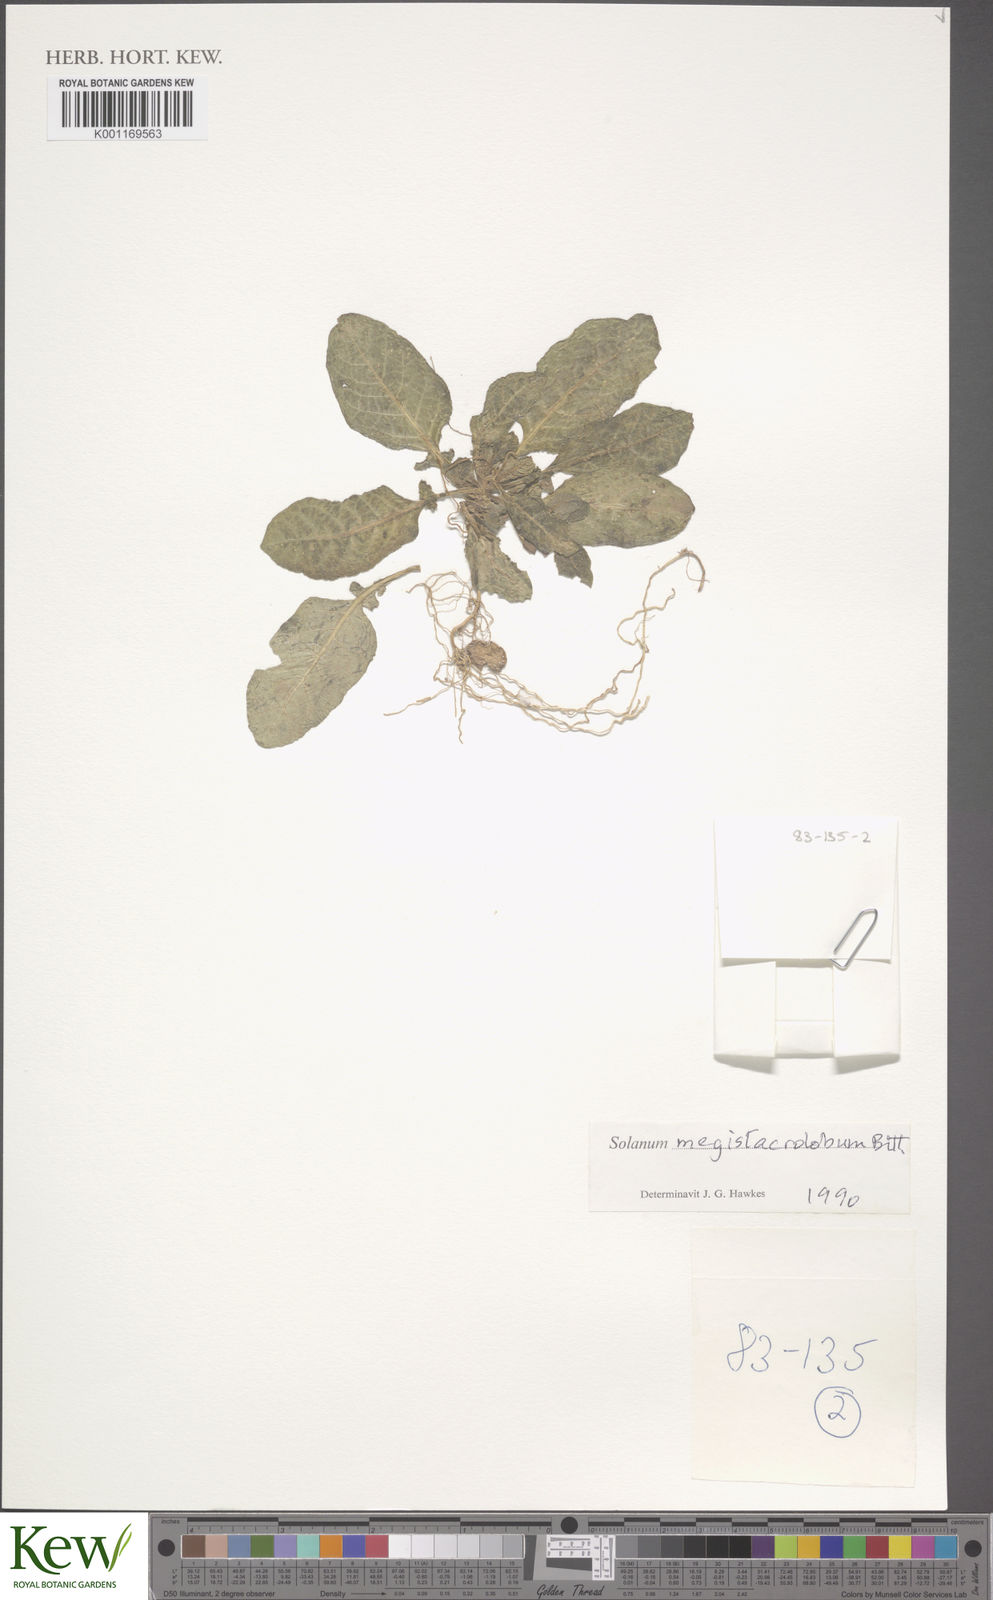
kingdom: Plantae
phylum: Tracheophyta
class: Magnoliopsida
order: Solanales
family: Solanaceae
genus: Solanum
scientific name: Solanum boliviense
